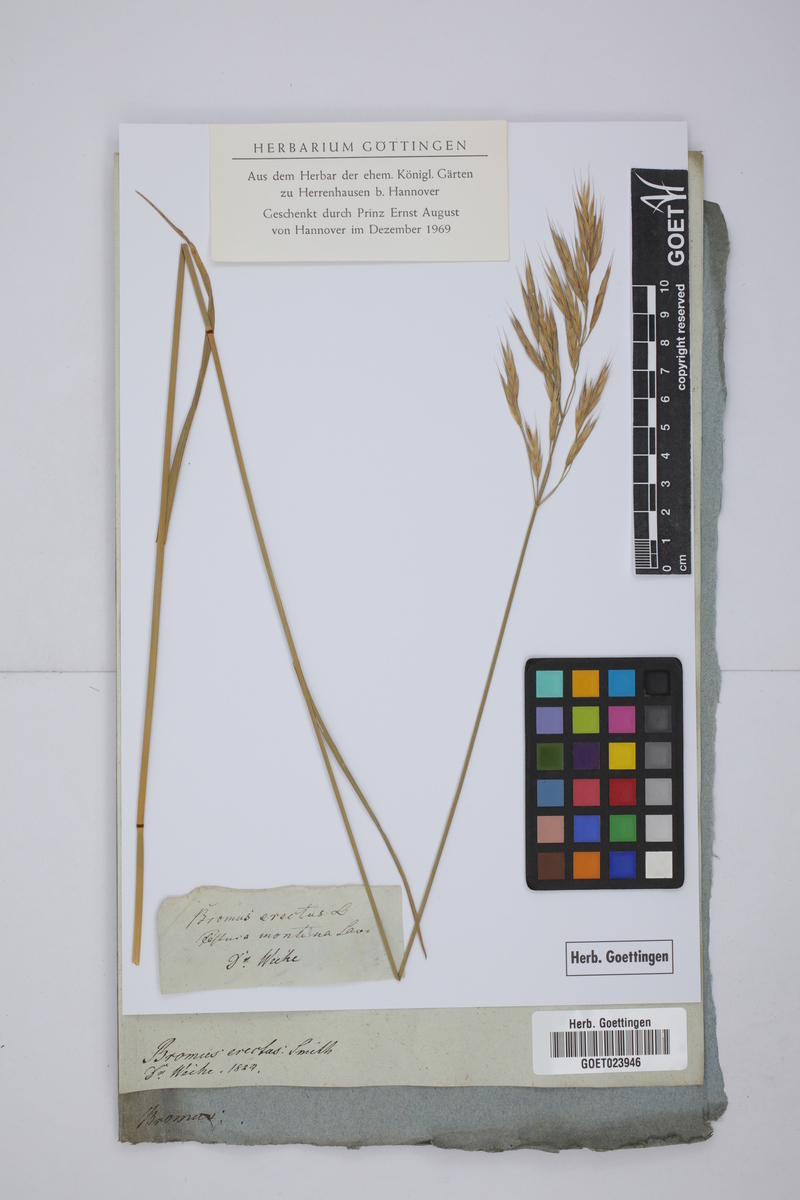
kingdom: Plantae
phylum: Tracheophyta
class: Liliopsida
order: Poales
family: Poaceae
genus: Bromus
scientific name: Bromus erectus
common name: Erect brome
